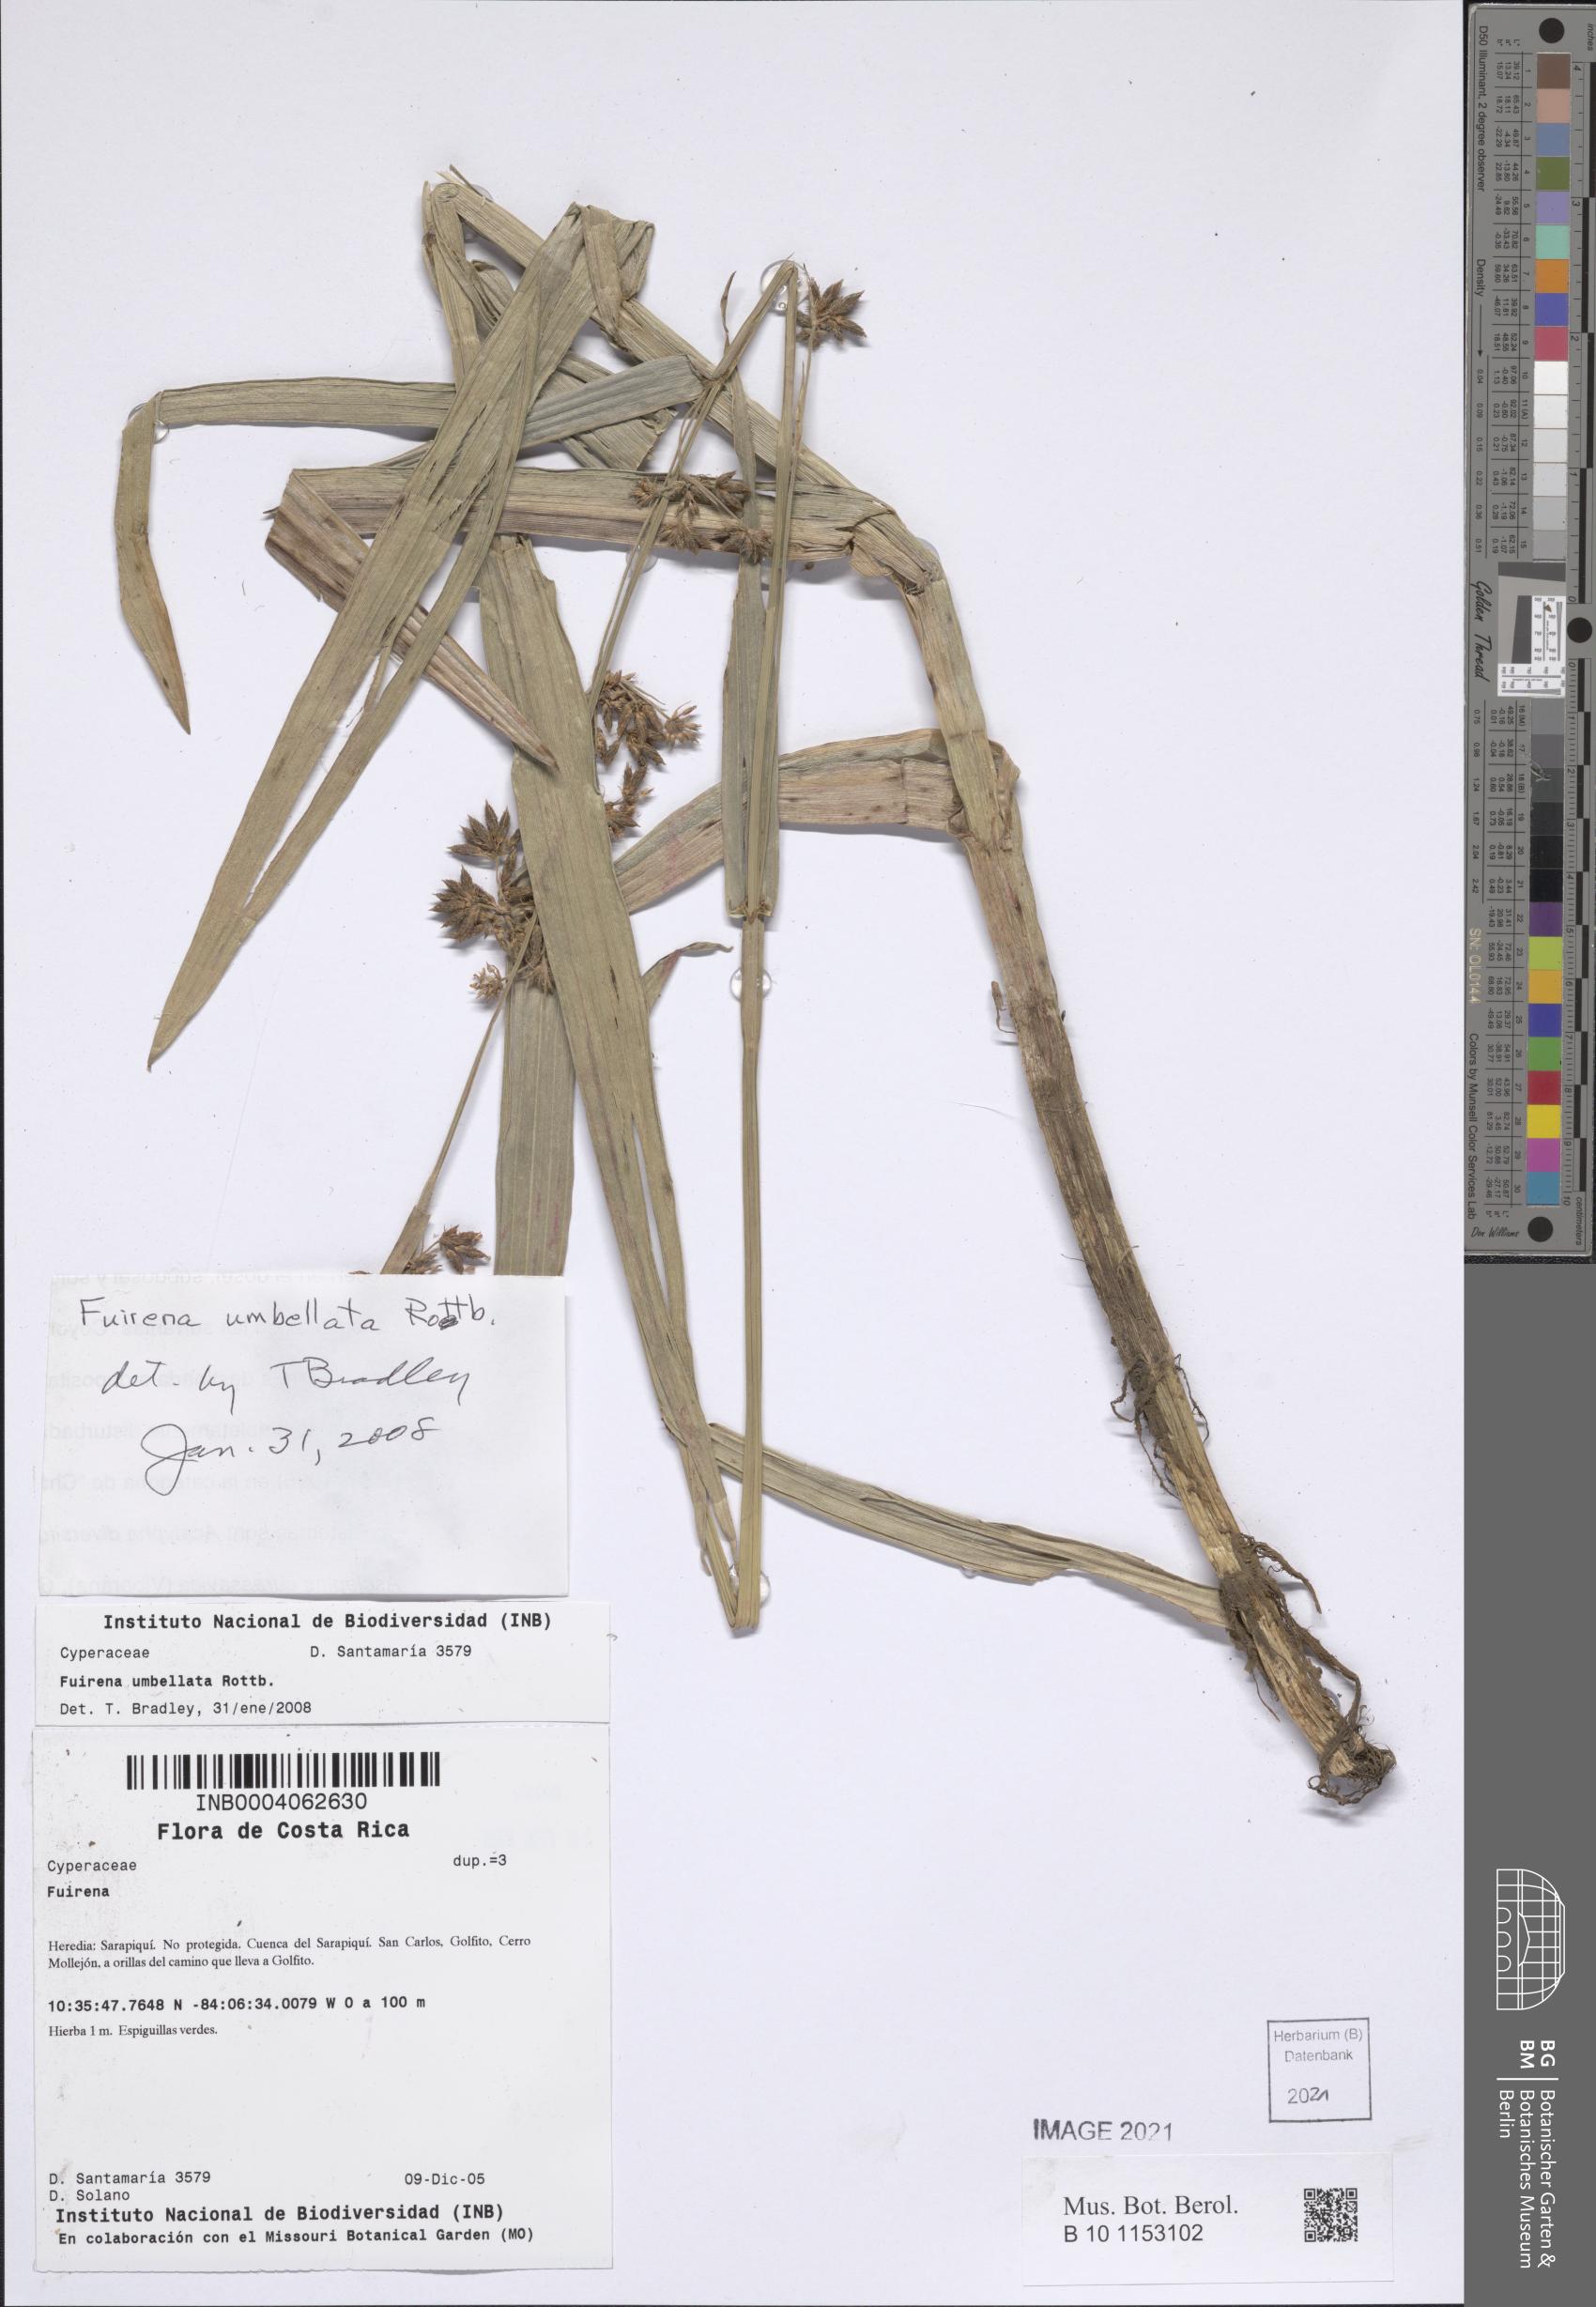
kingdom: Plantae
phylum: Tracheophyta
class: Liliopsida
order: Poales
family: Cyperaceae
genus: Fuirena
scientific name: Fuirena umbellata
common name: Yefen
